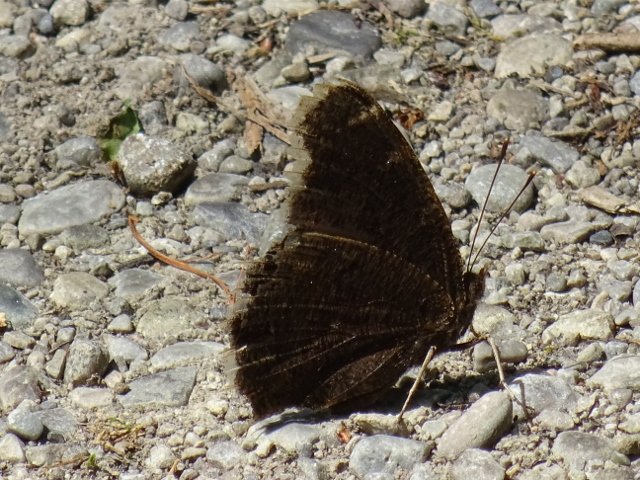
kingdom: Animalia
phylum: Arthropoda
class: Insecta
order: Lepidoptera
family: Nymphalidae
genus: Nymphalis
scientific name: Nymphalis antiopa
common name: Mourning Cloak
